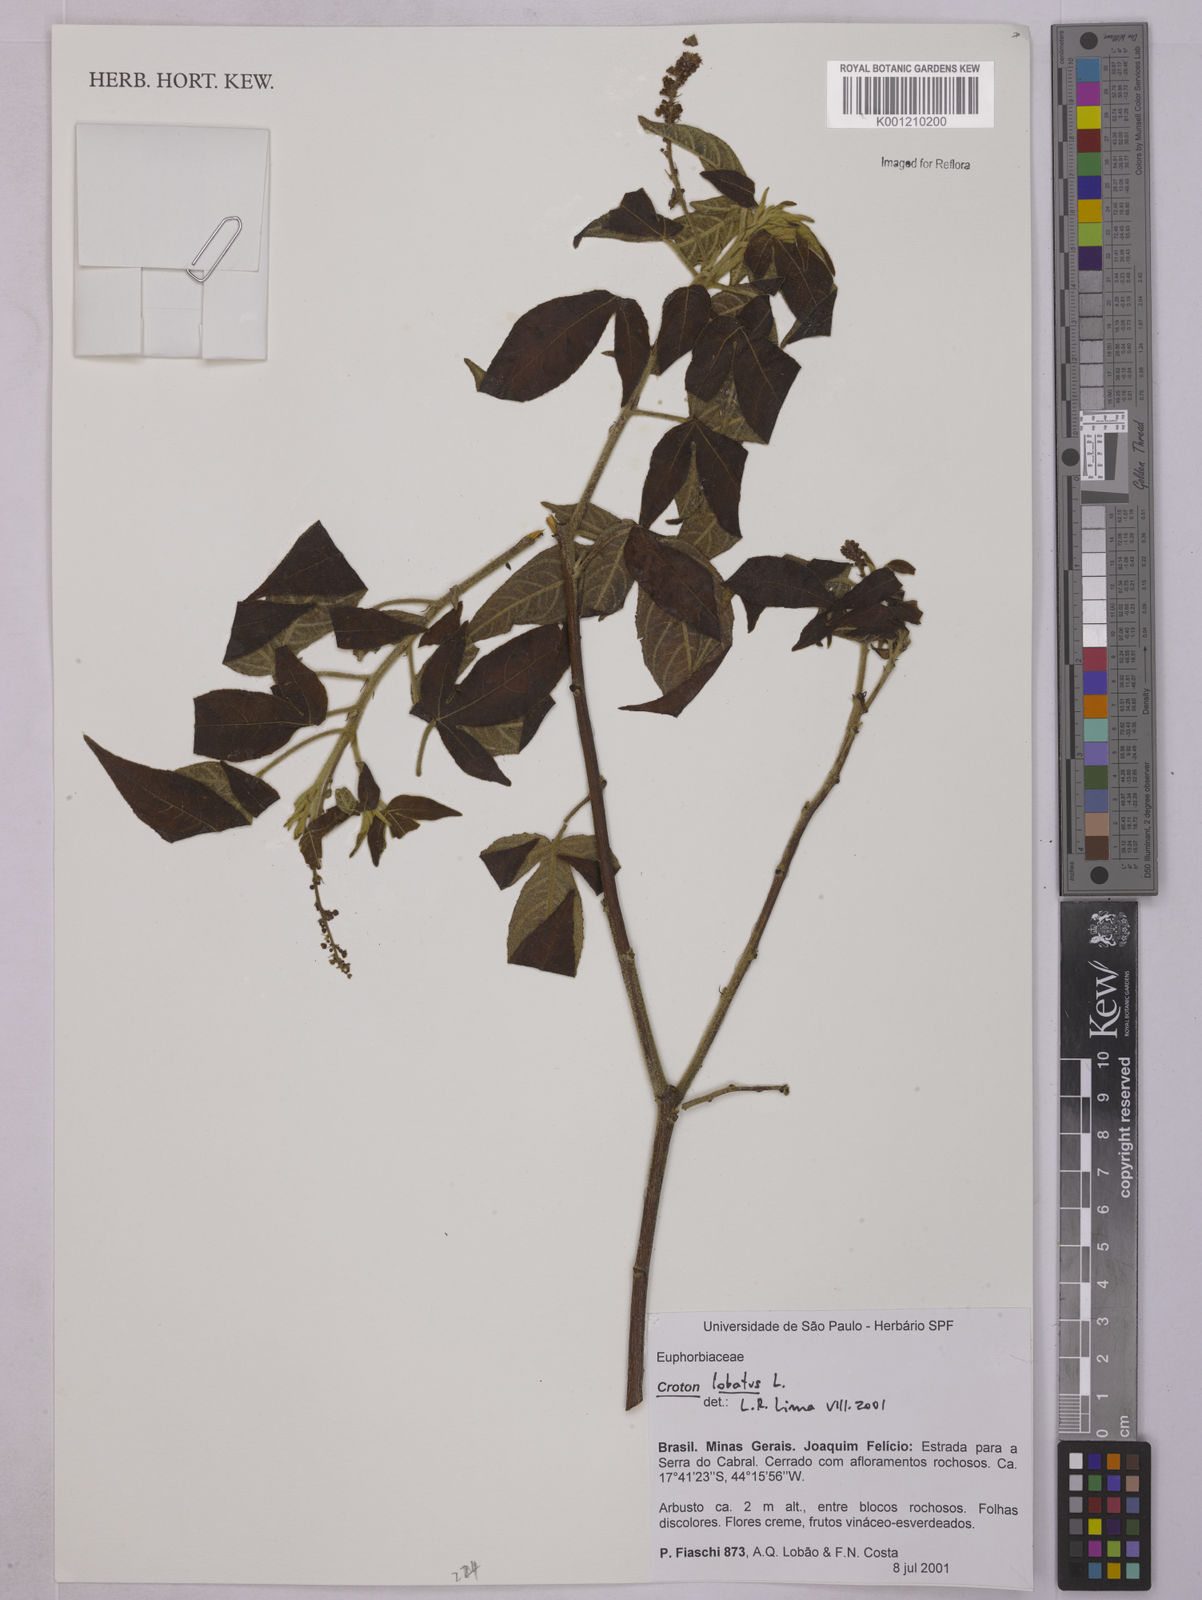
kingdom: Plantae
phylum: Tracheophyta
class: Magnoliopsida
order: Malpighiales
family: Euphorbiaceae
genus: Astraea
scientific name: Astraea lobata
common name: Lobed croton
